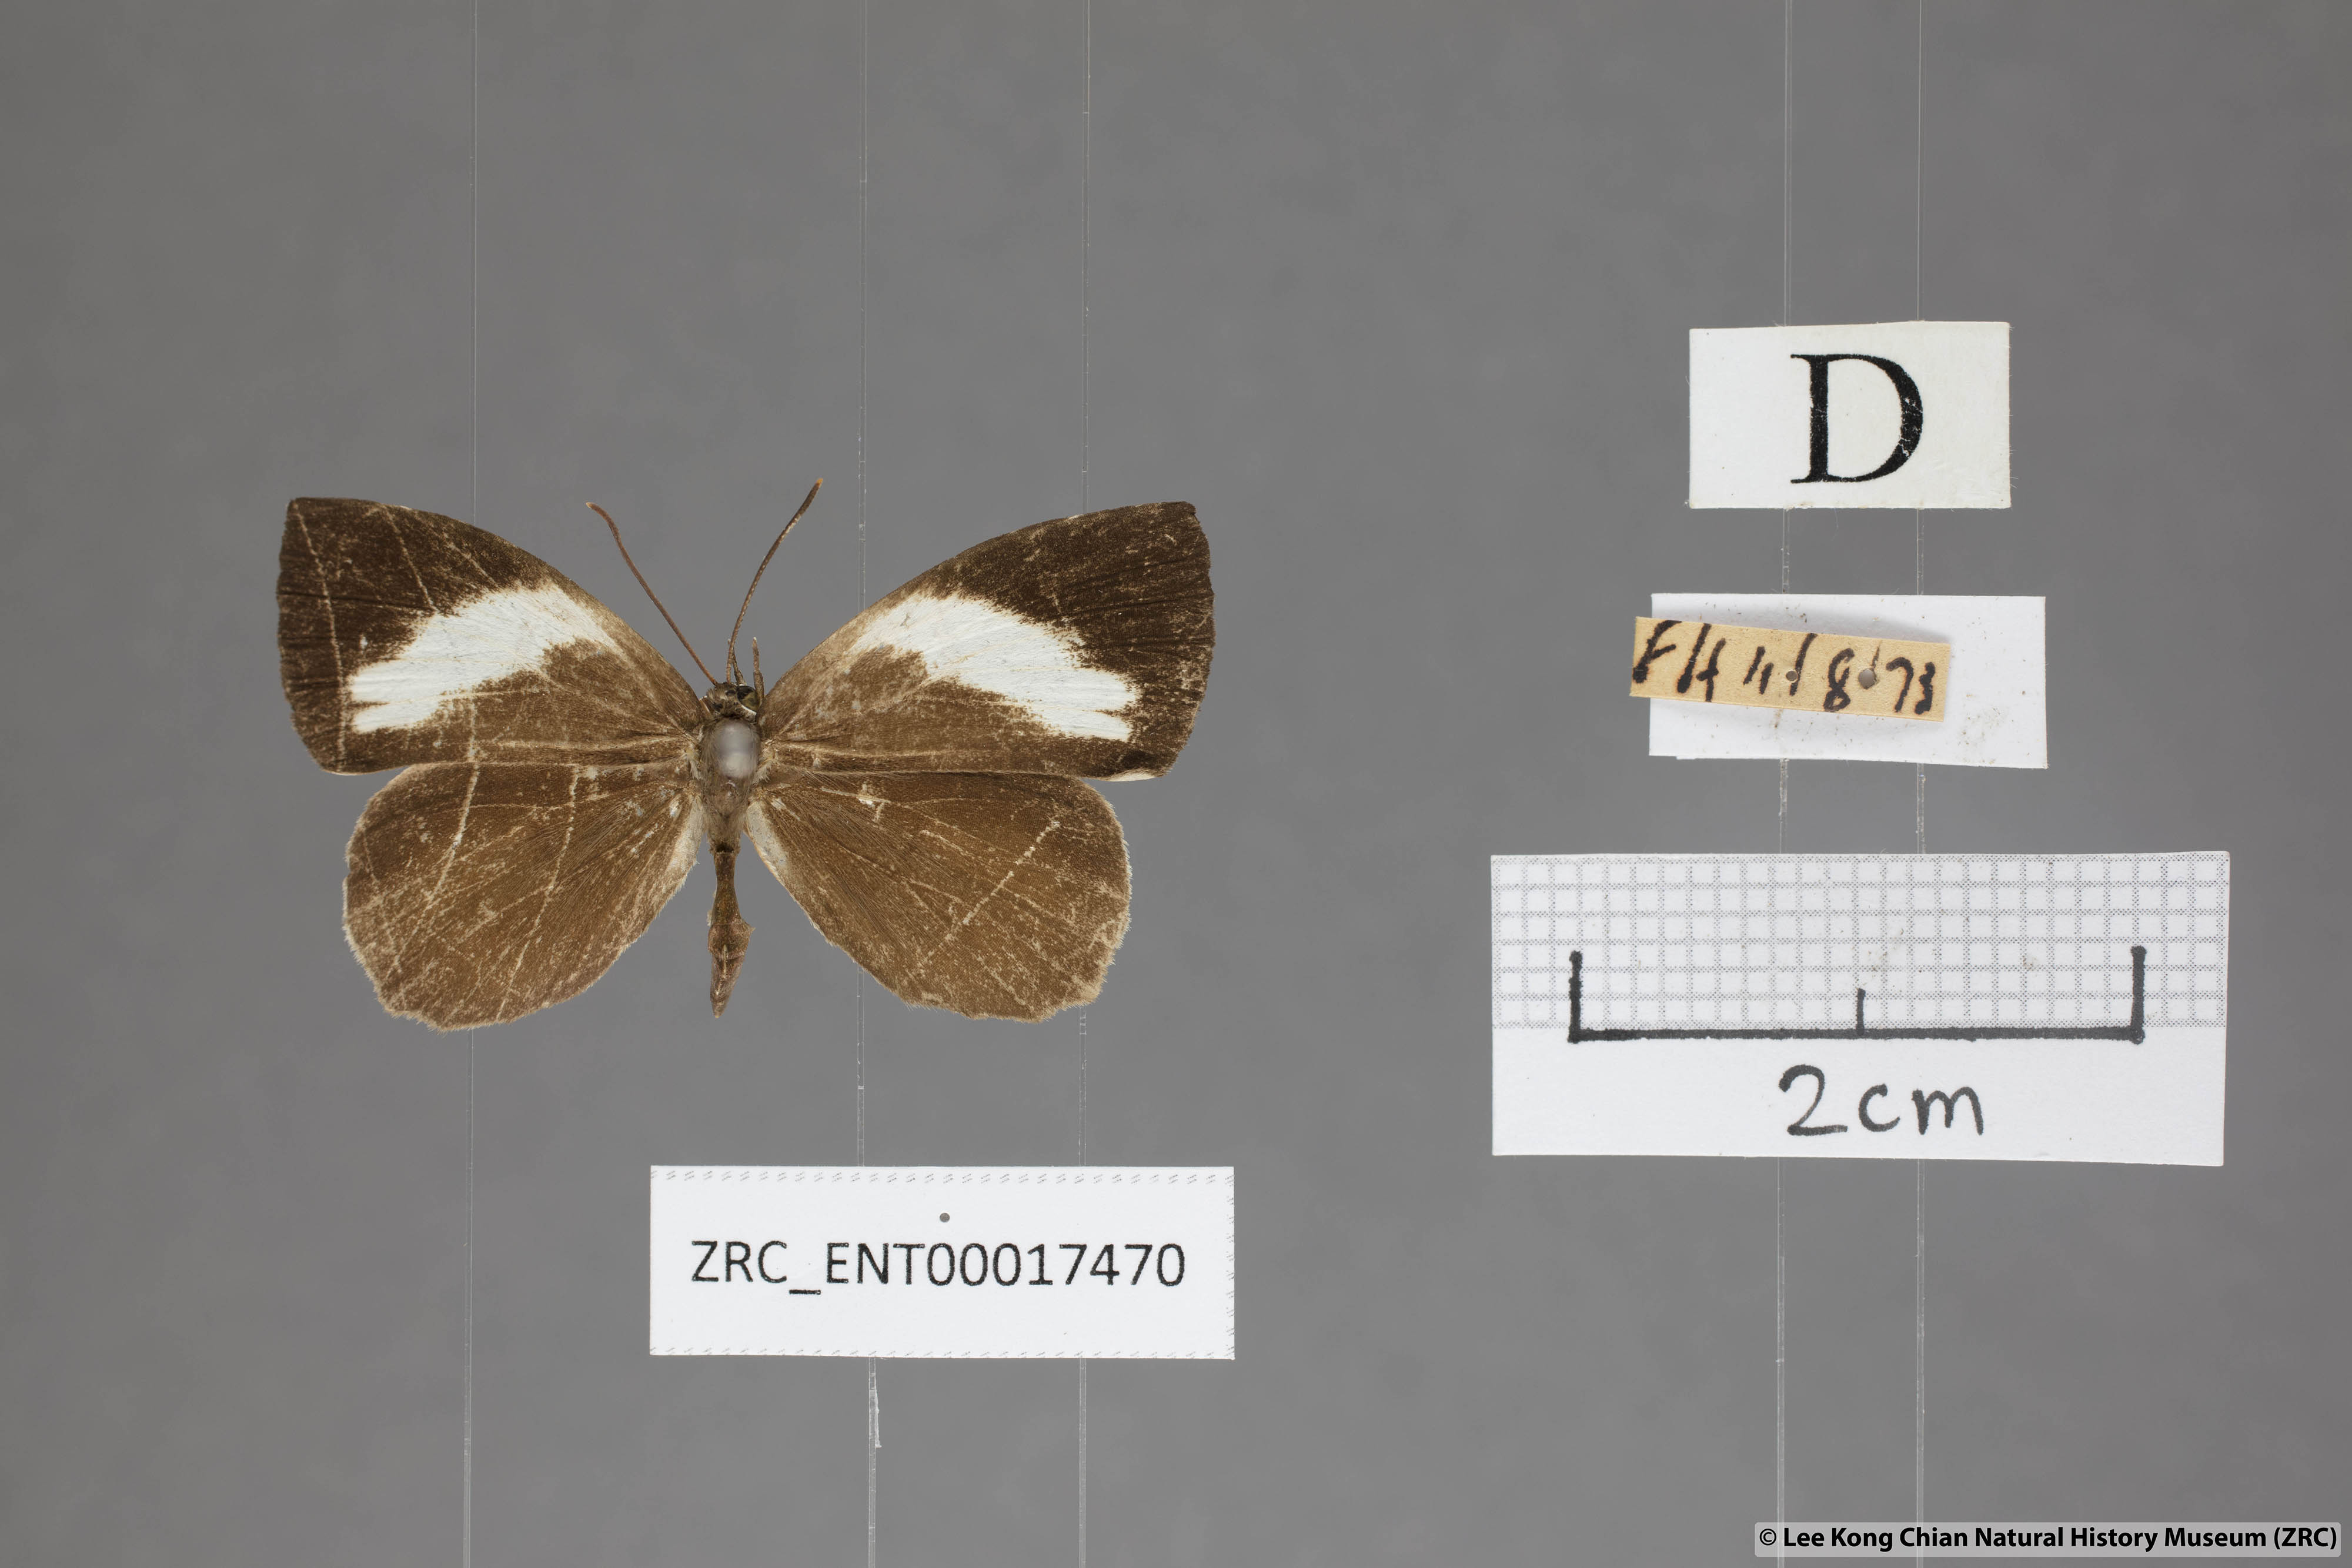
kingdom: Animalia
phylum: Arthropoda
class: Insecta
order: Lepidoptera
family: Lycaenidae
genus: Miletus
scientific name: Miletus nymphis
